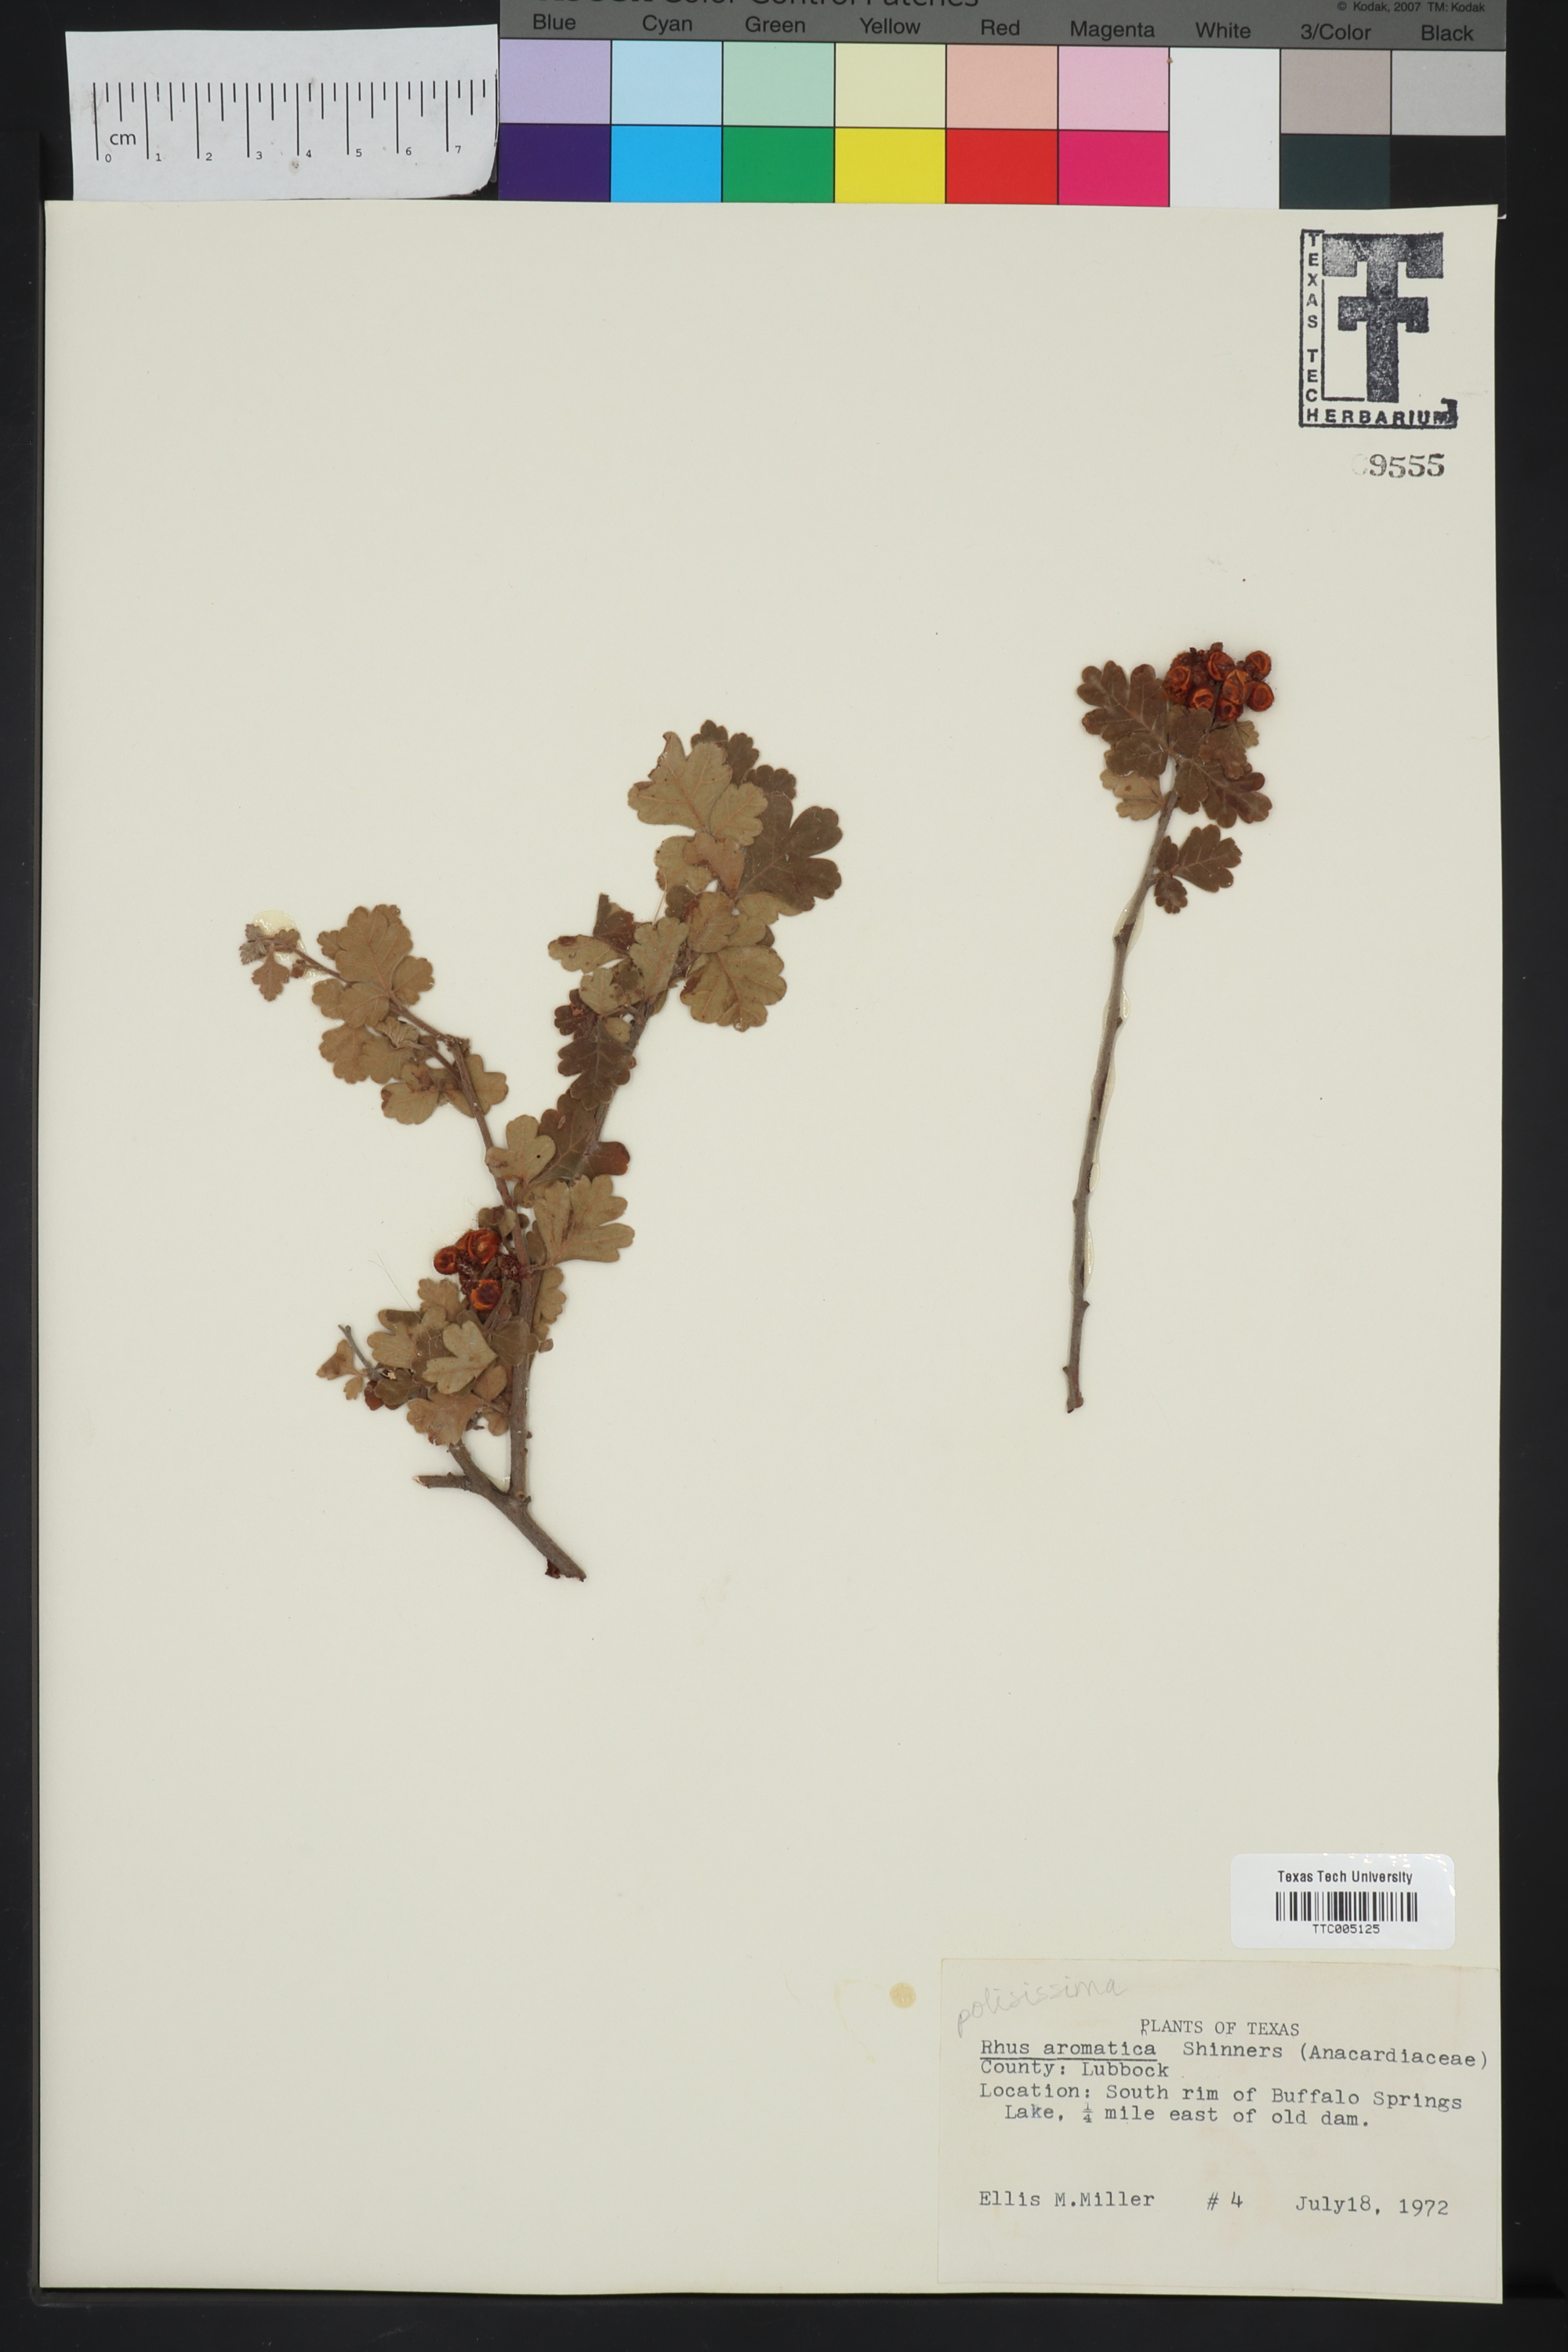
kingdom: Plantae
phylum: Tracheophyta
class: Magnoliopsida
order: Sapindales
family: Anacardiaceae
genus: Rhus
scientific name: Rhus aromatica
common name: Aromatic sumac
